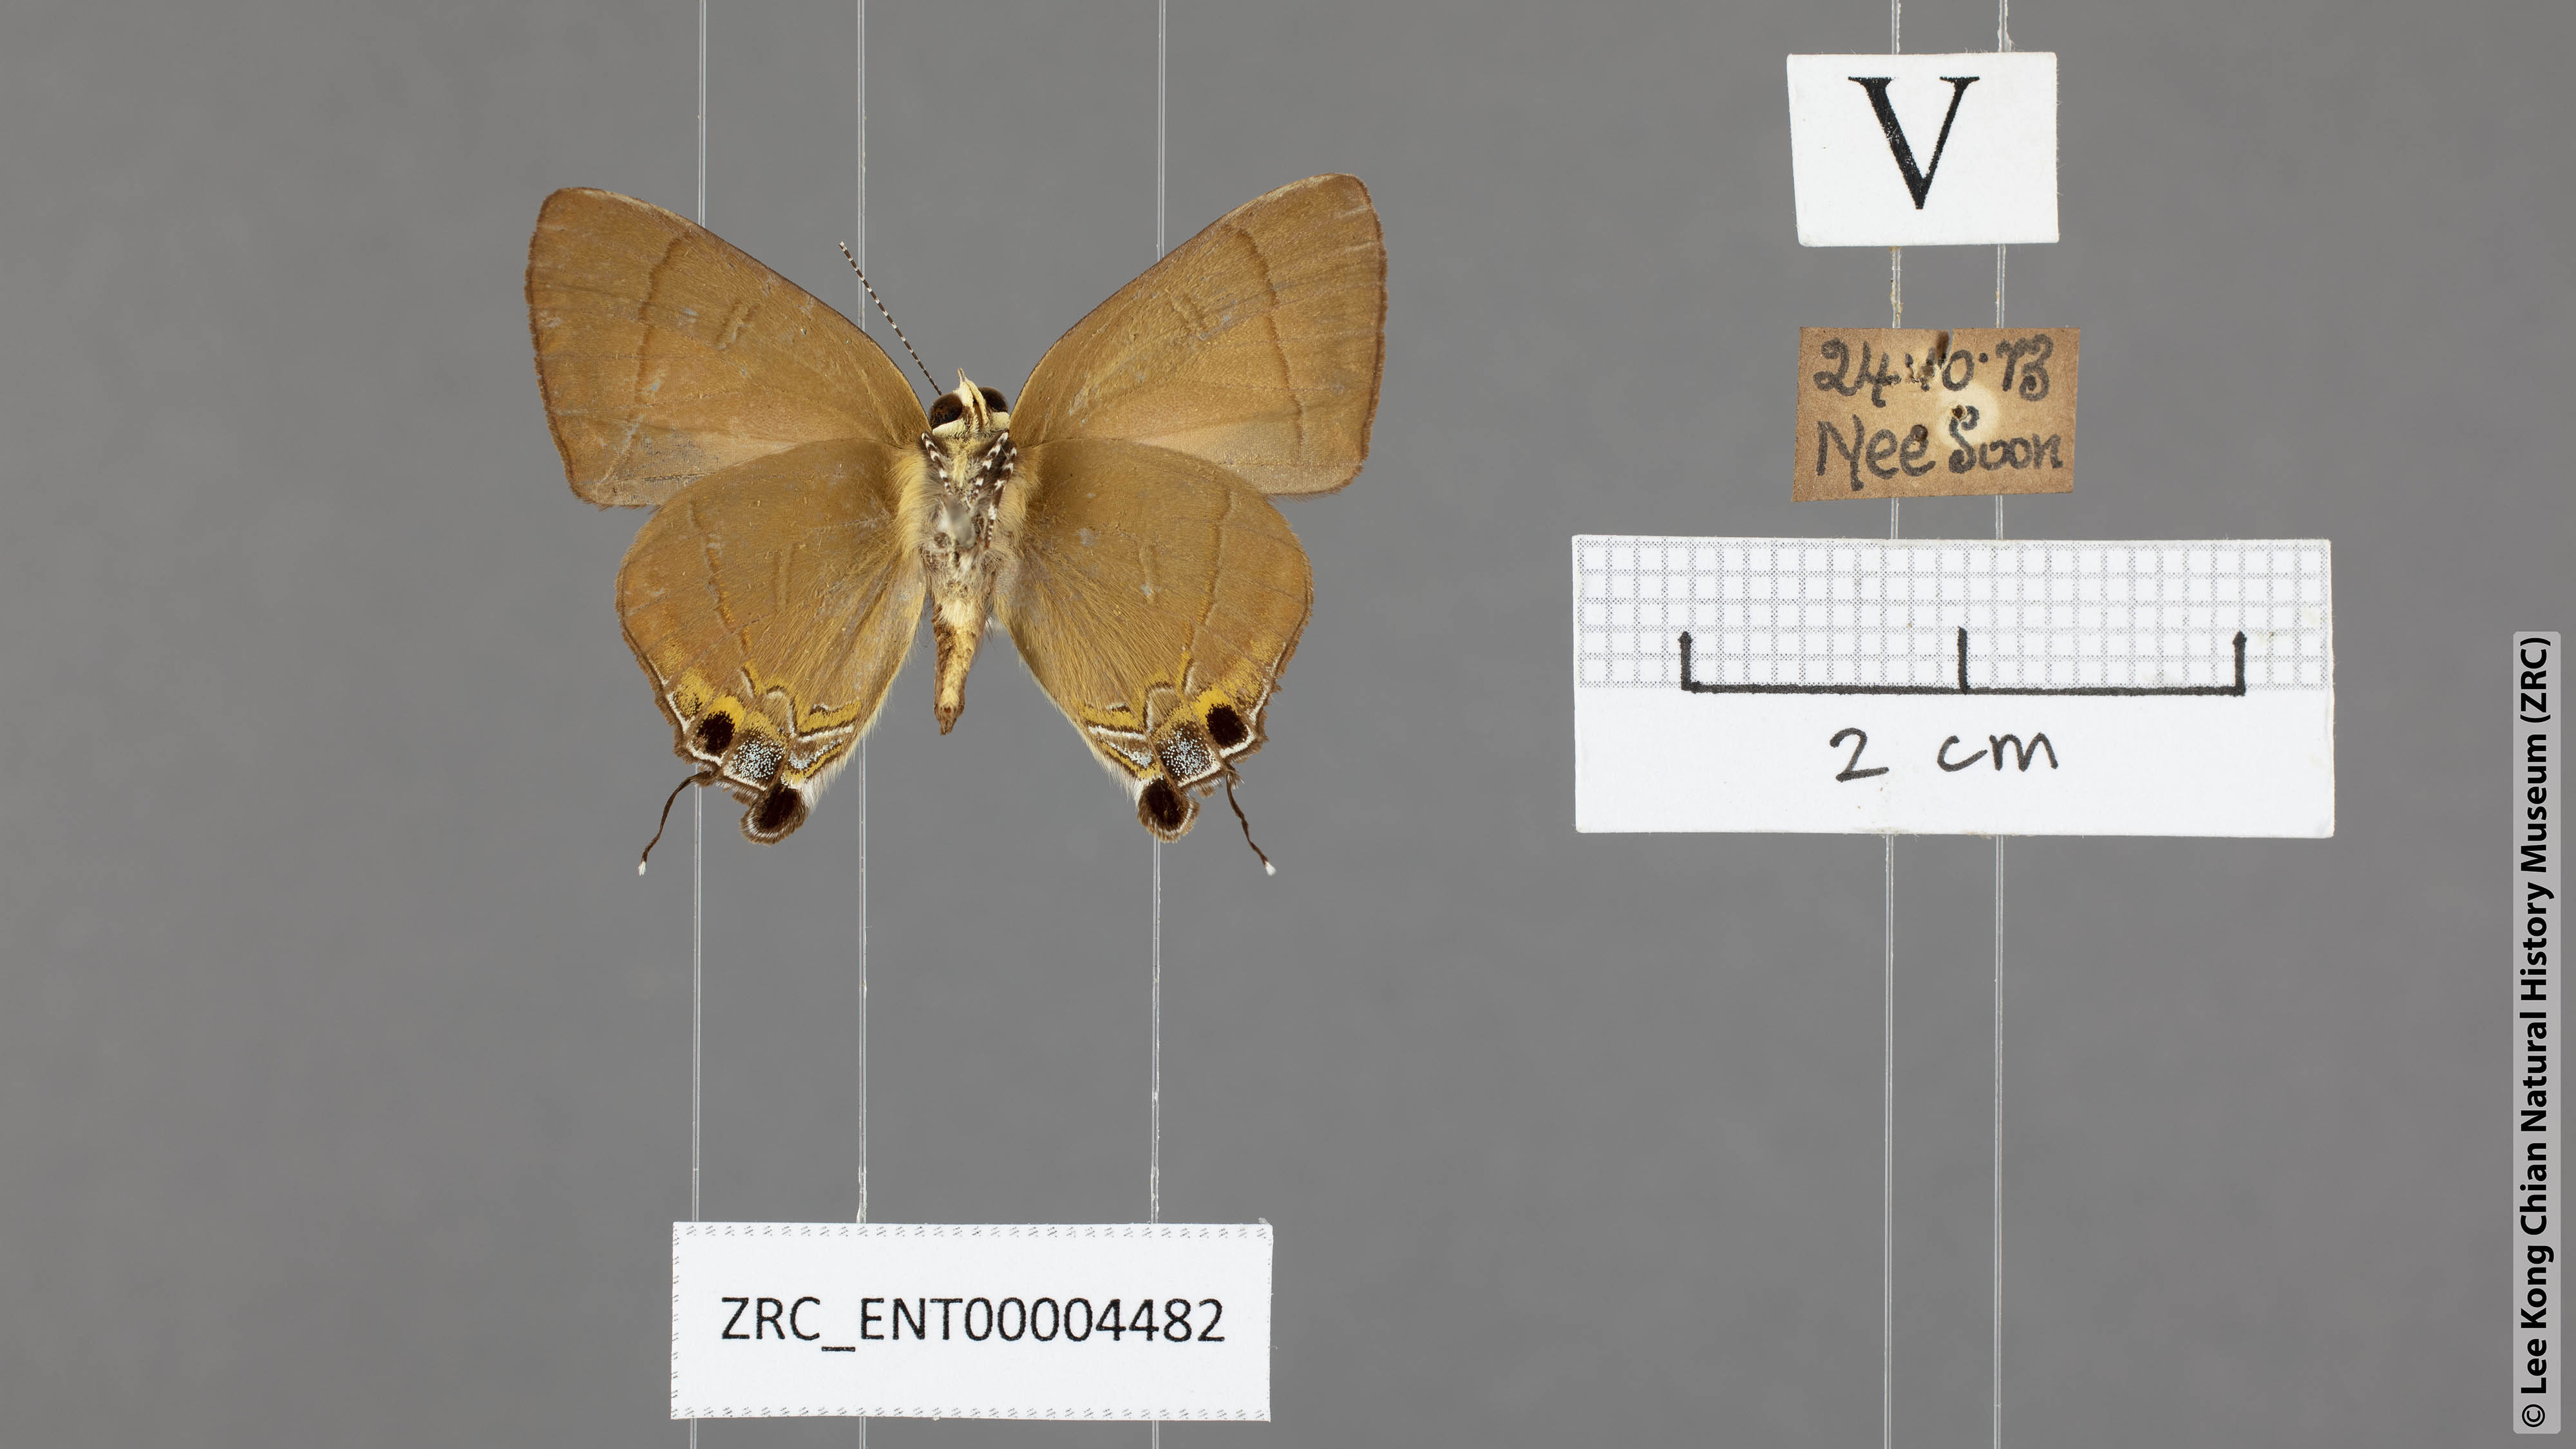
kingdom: Animalia
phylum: Arthropoda
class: Insecta
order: Lepidoptera
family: Lycaenidae
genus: Rapala
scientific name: Rapala dieneces
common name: Scarlet flash
